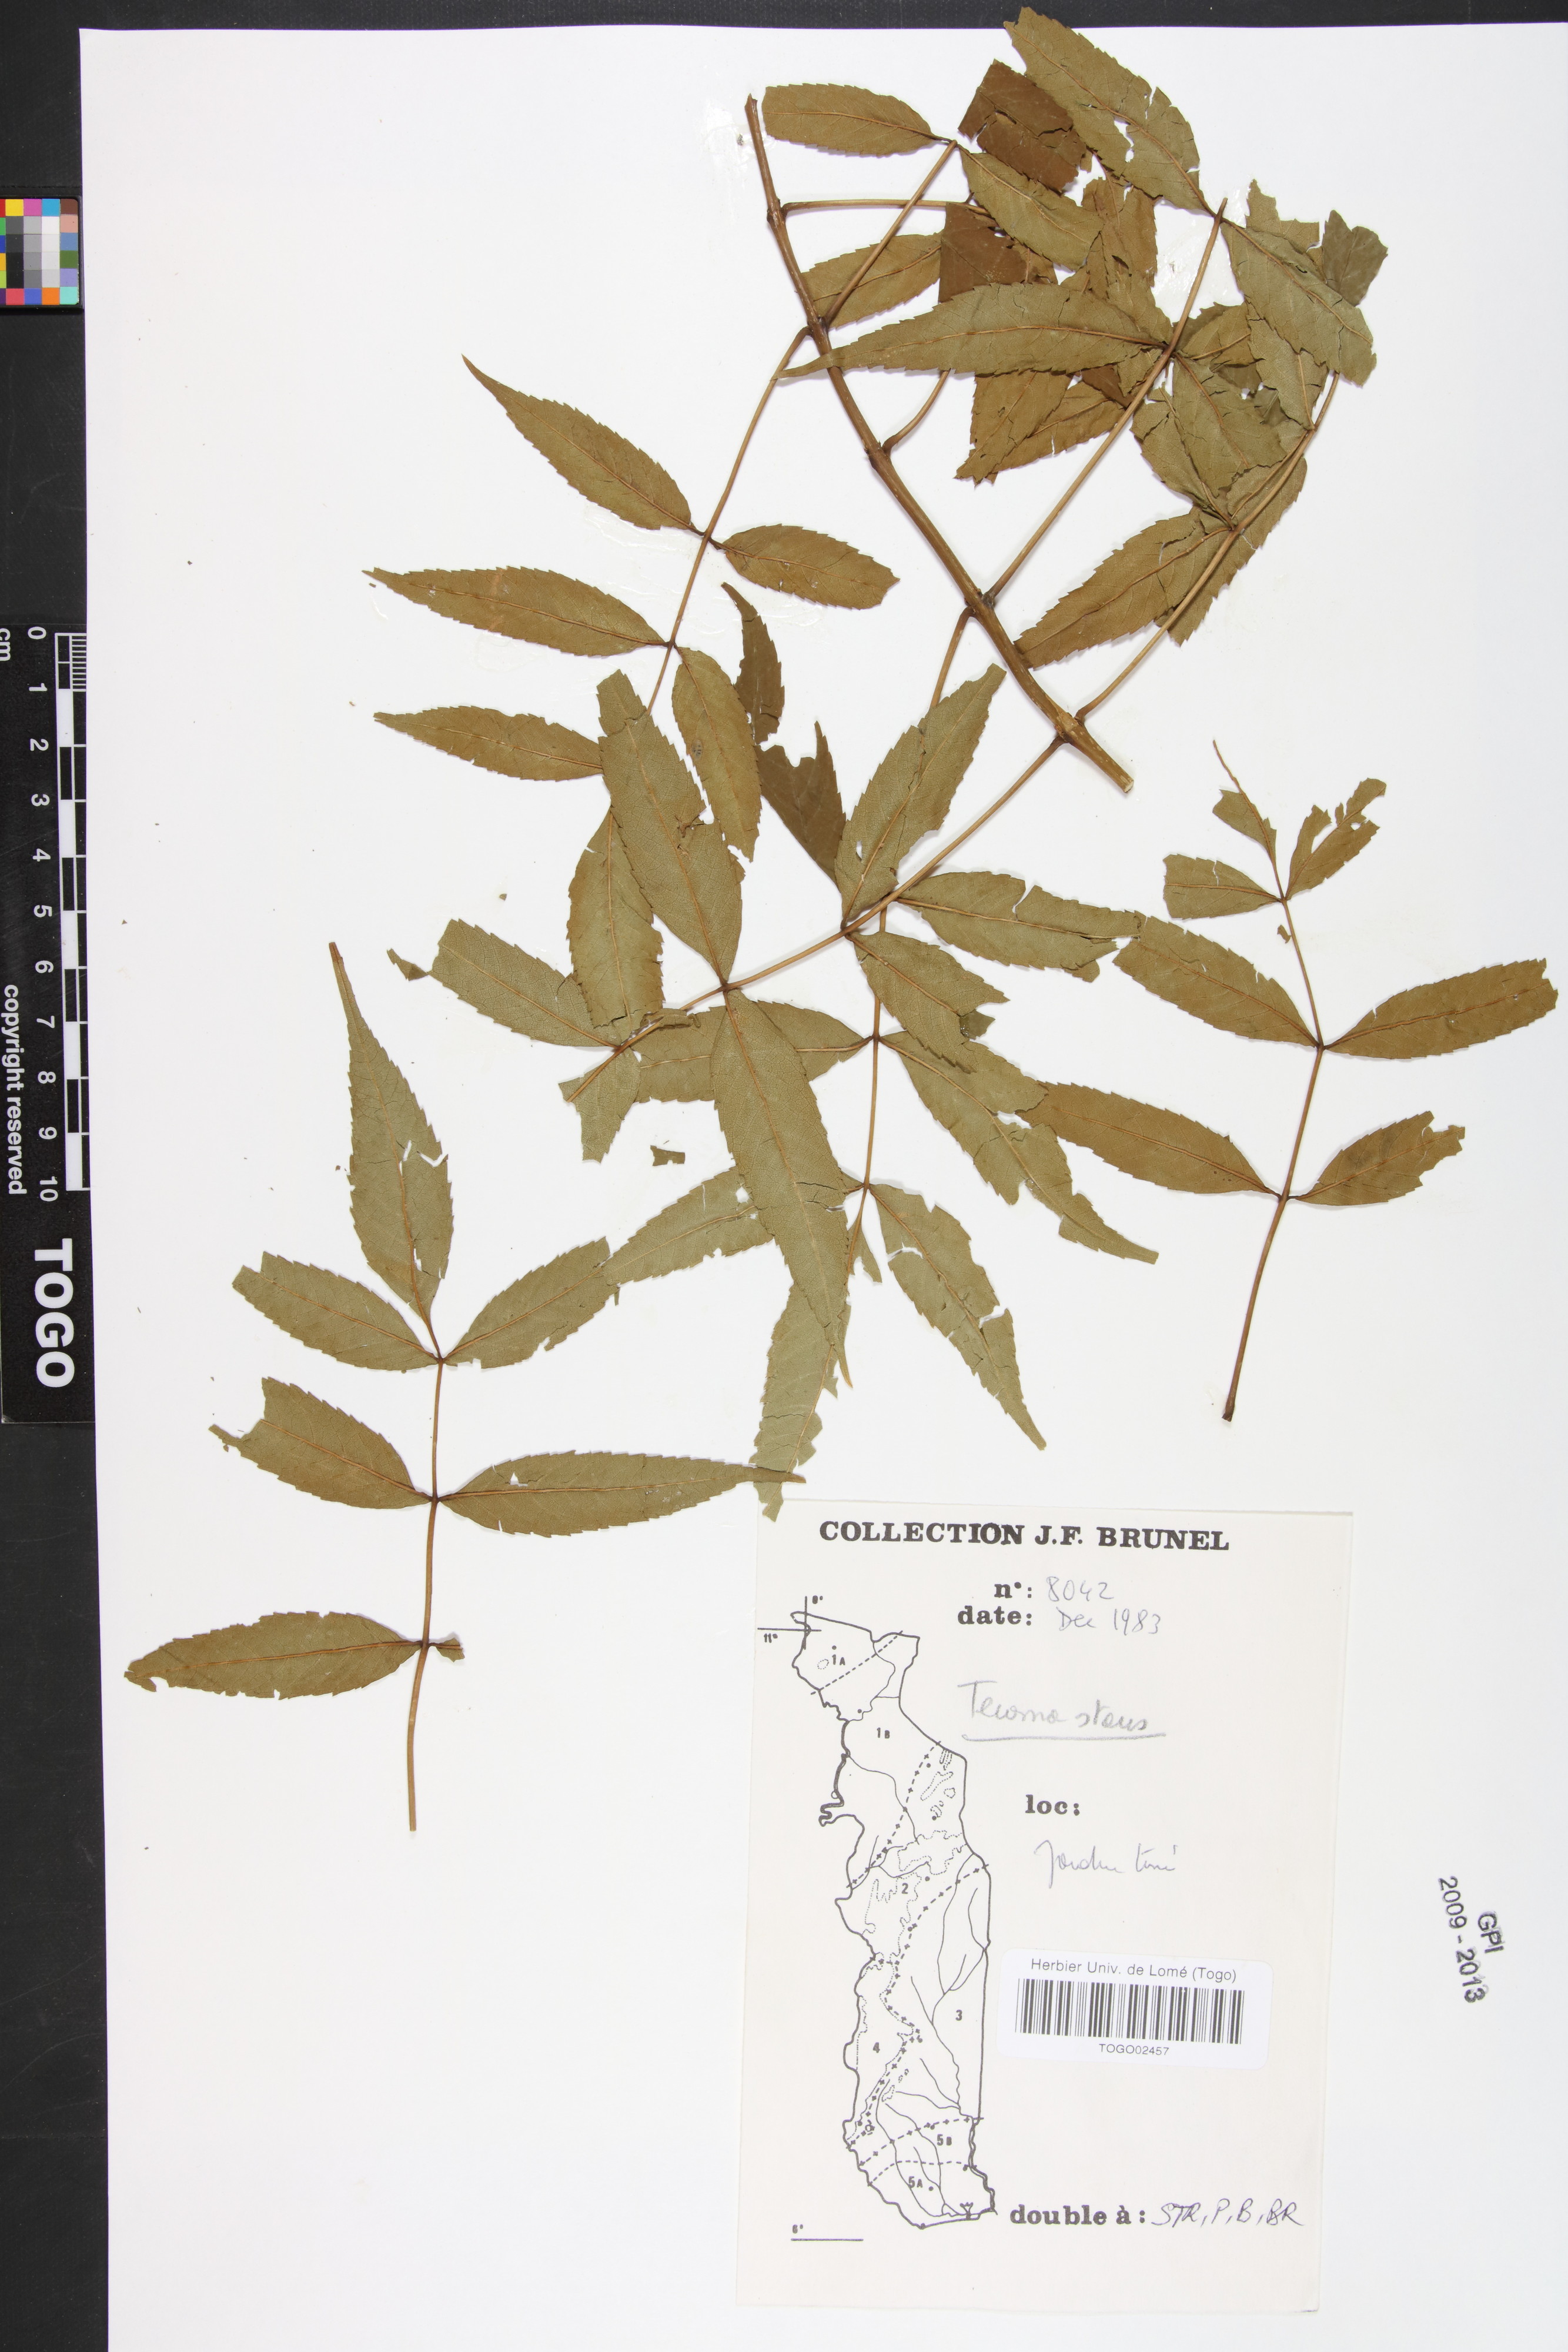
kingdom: Plantae
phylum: Tracheophyta
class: Magnoliopsida
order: Lamiales
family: Bignoniaceae
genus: Spathodea
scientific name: Spathodea campanulata
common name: African tuliptree
